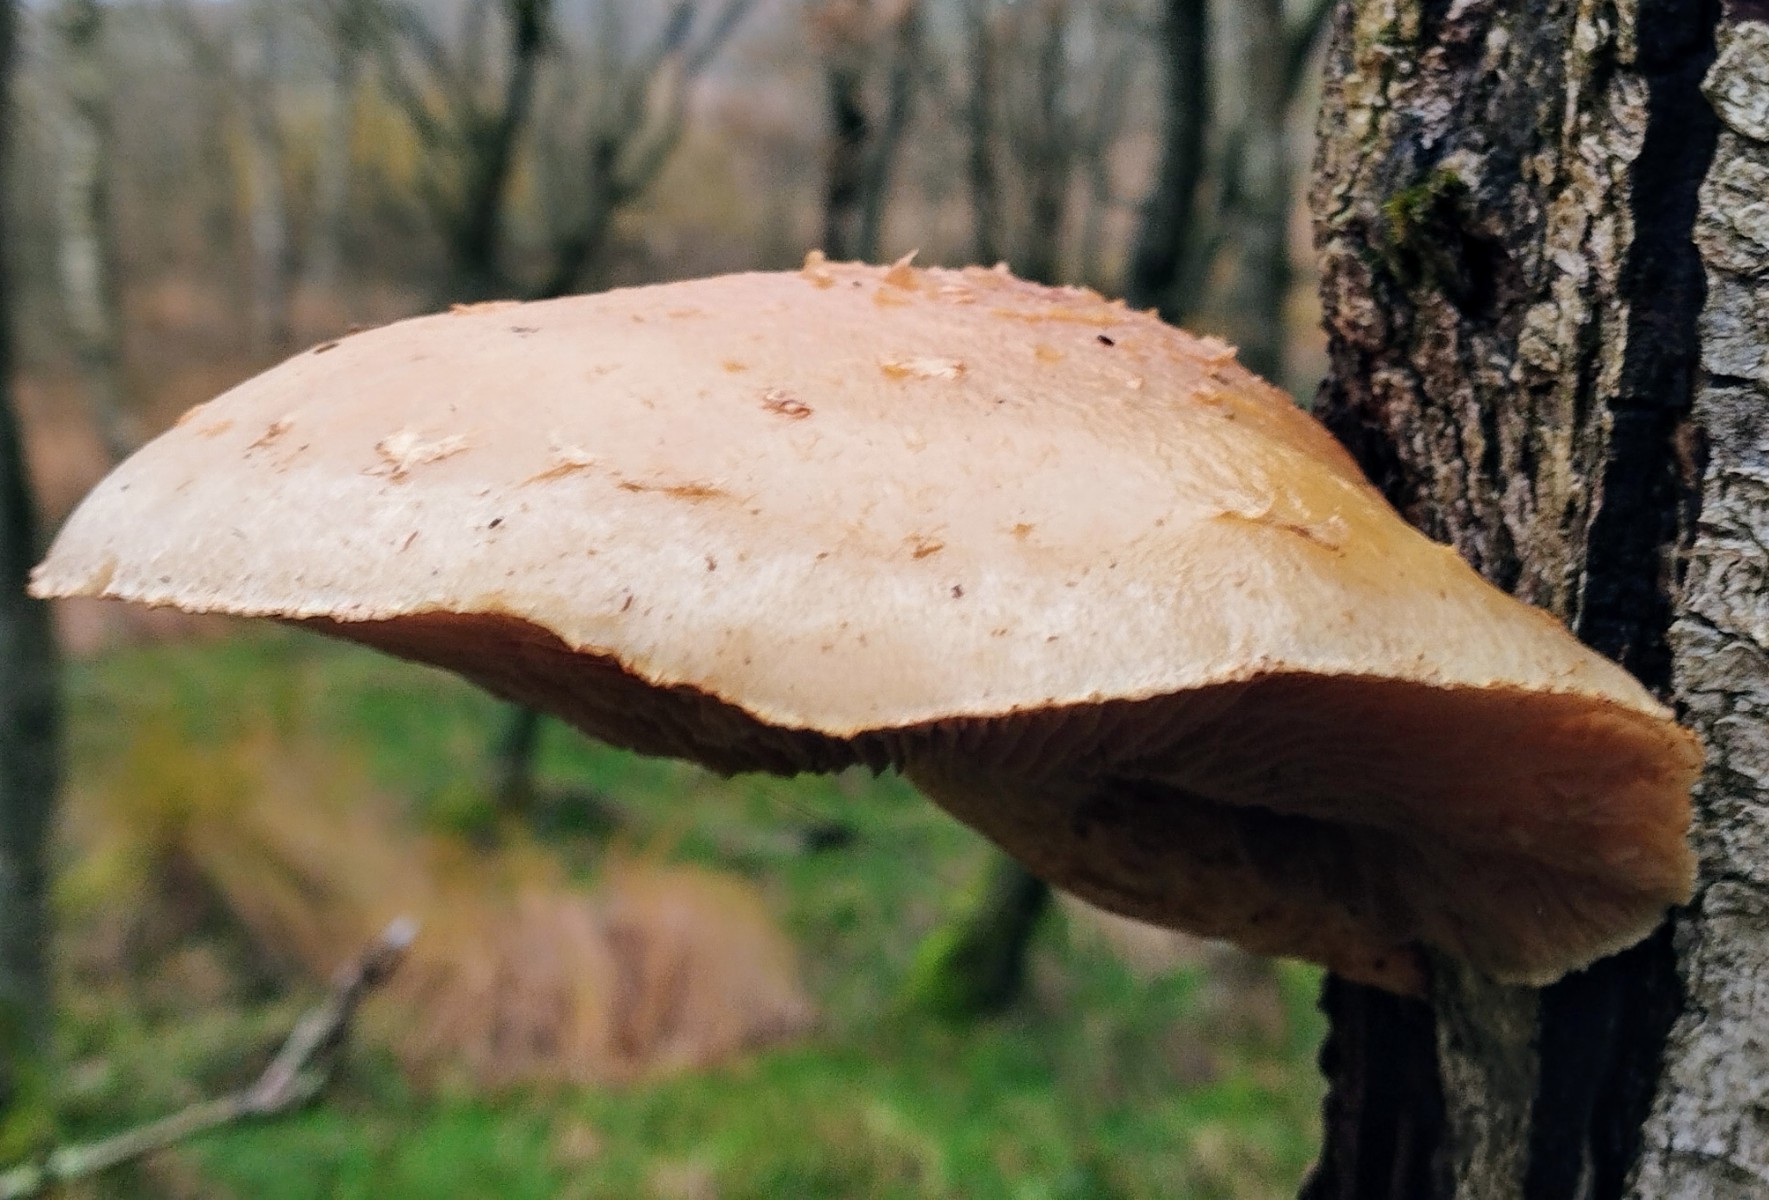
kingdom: Fungi
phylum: Basidiomycota
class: Agaricomycetes
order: Agaricales
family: Strophariaceae
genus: Pholiota
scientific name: Pholiota heteroclita
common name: duftende kæmpeskælhat
